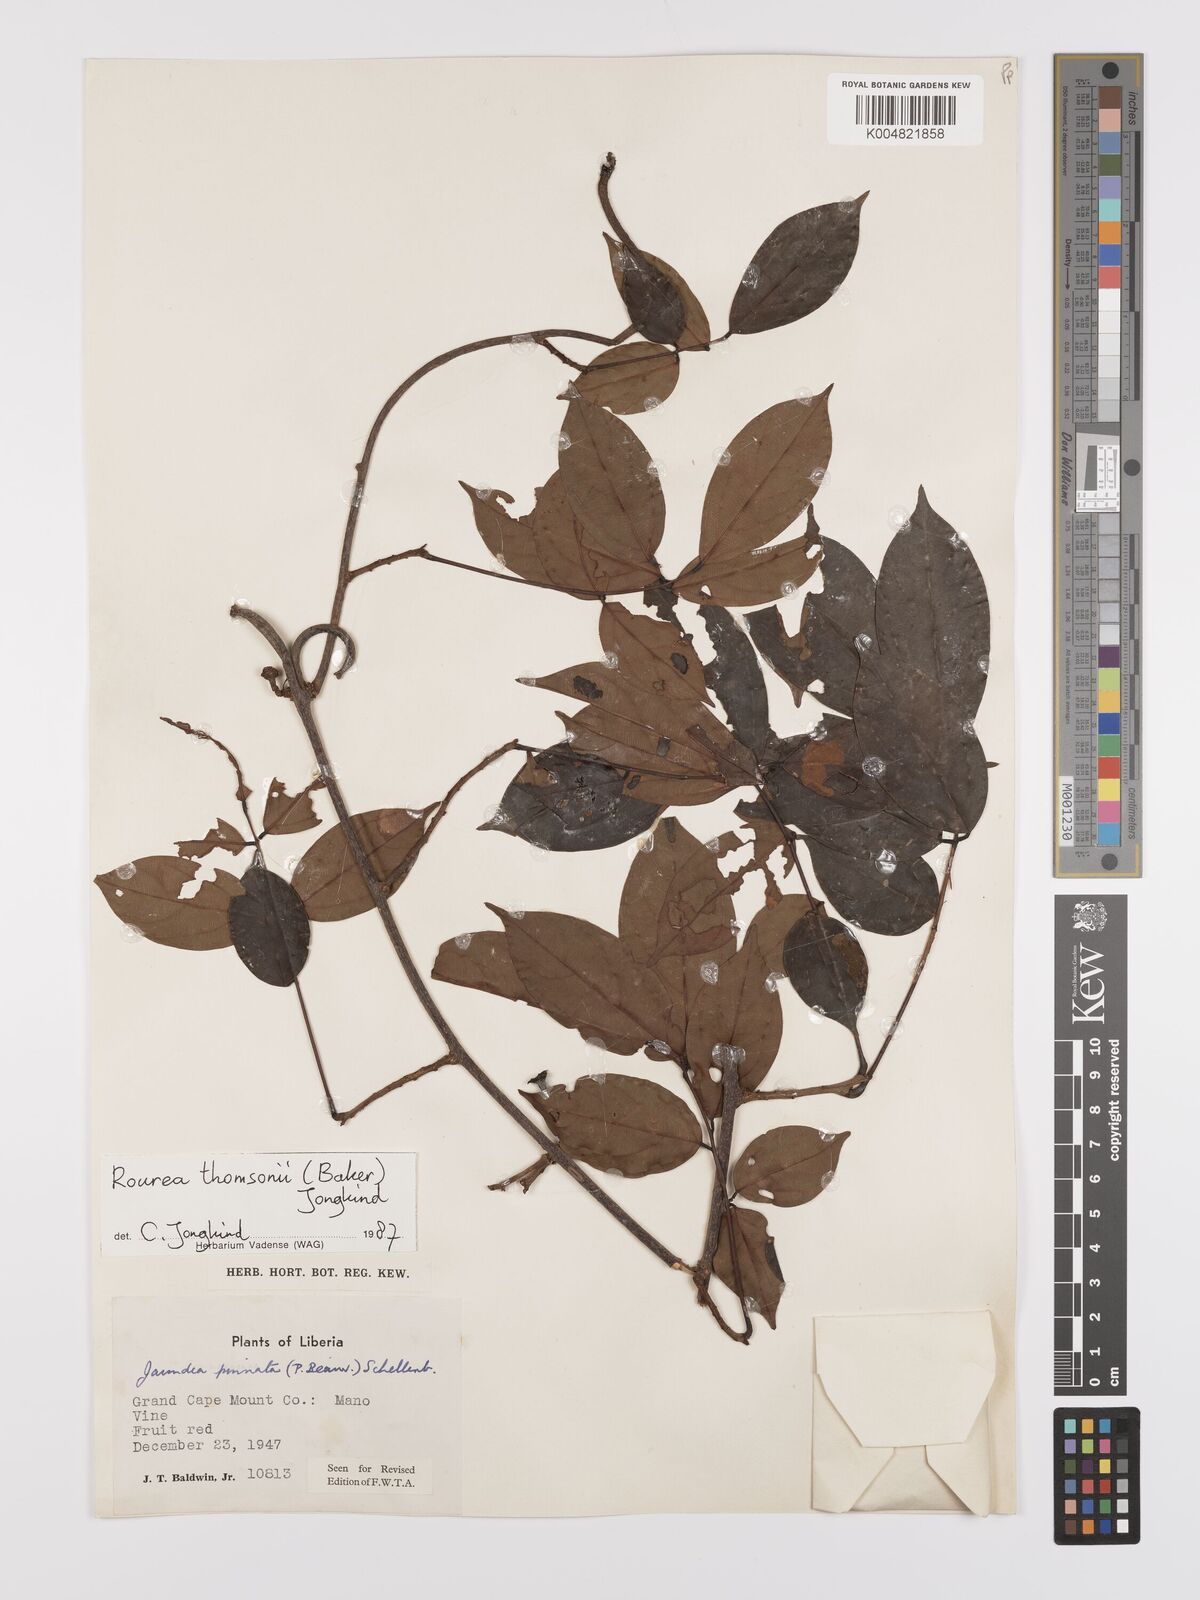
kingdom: Plantae
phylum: Tracheophyta
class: Magnoliopsida
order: Oxalidales
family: Connaraceae
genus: Rourea
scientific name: Rourea pinnata
